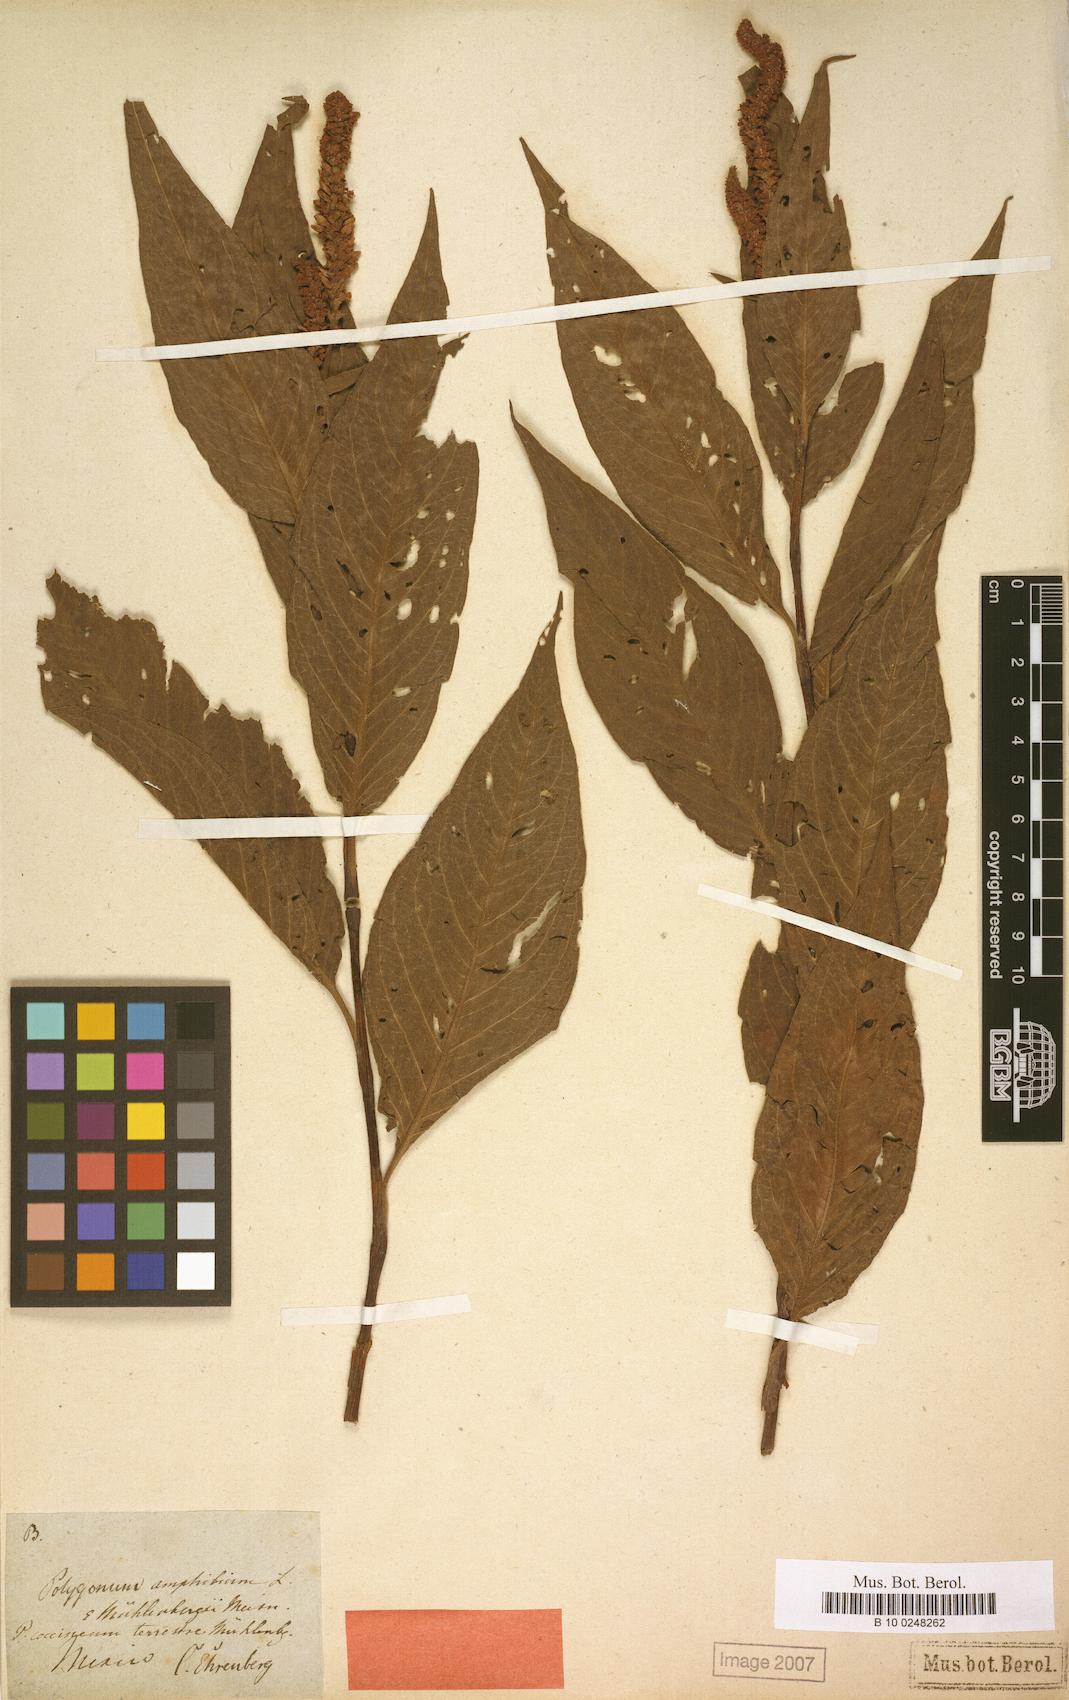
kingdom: Plantae
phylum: Tracheophyta
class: Magnoliopsida
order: Caryophyllales
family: Polygonaceae
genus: Persicaria
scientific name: Persicaria amphibia
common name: Amphibious bistort
